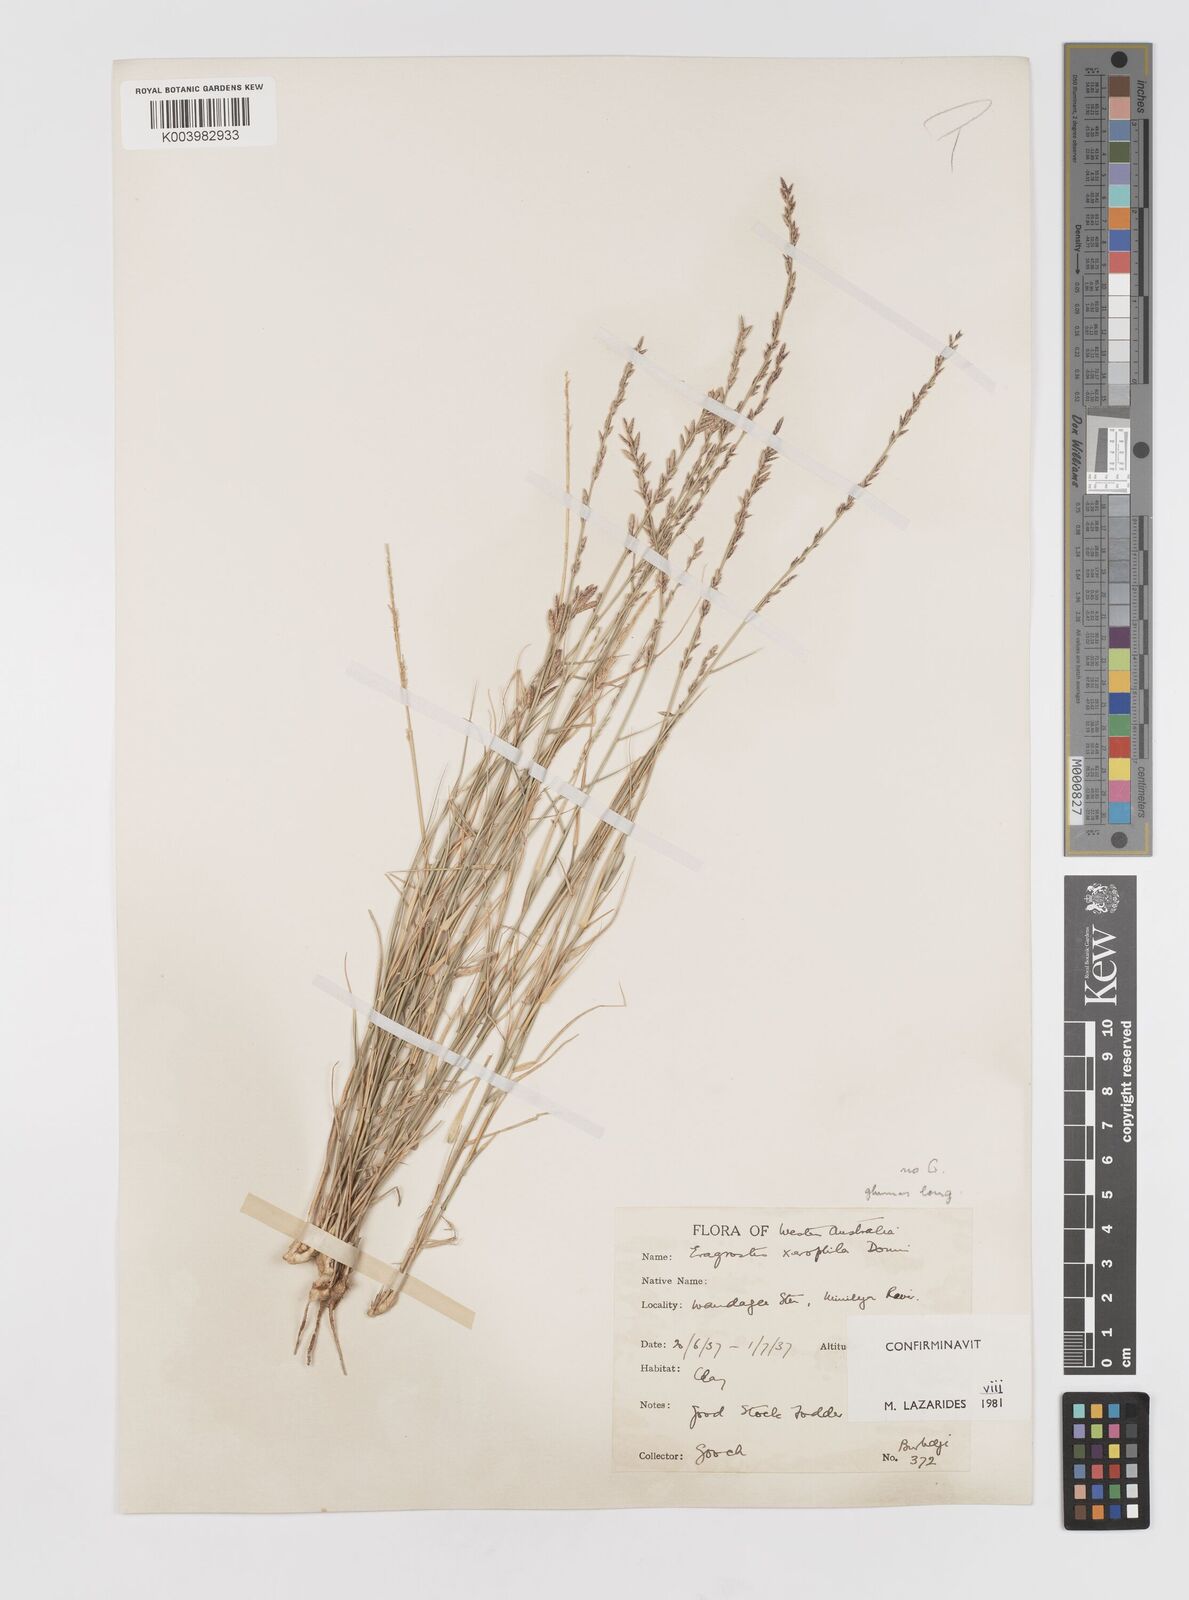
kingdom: Plantae
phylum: Tracheophyta
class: Liliopsida
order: Poales
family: Poaceae
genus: Eragrostis
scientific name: Eragrostis xerophila
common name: Wire wandarrie grass
